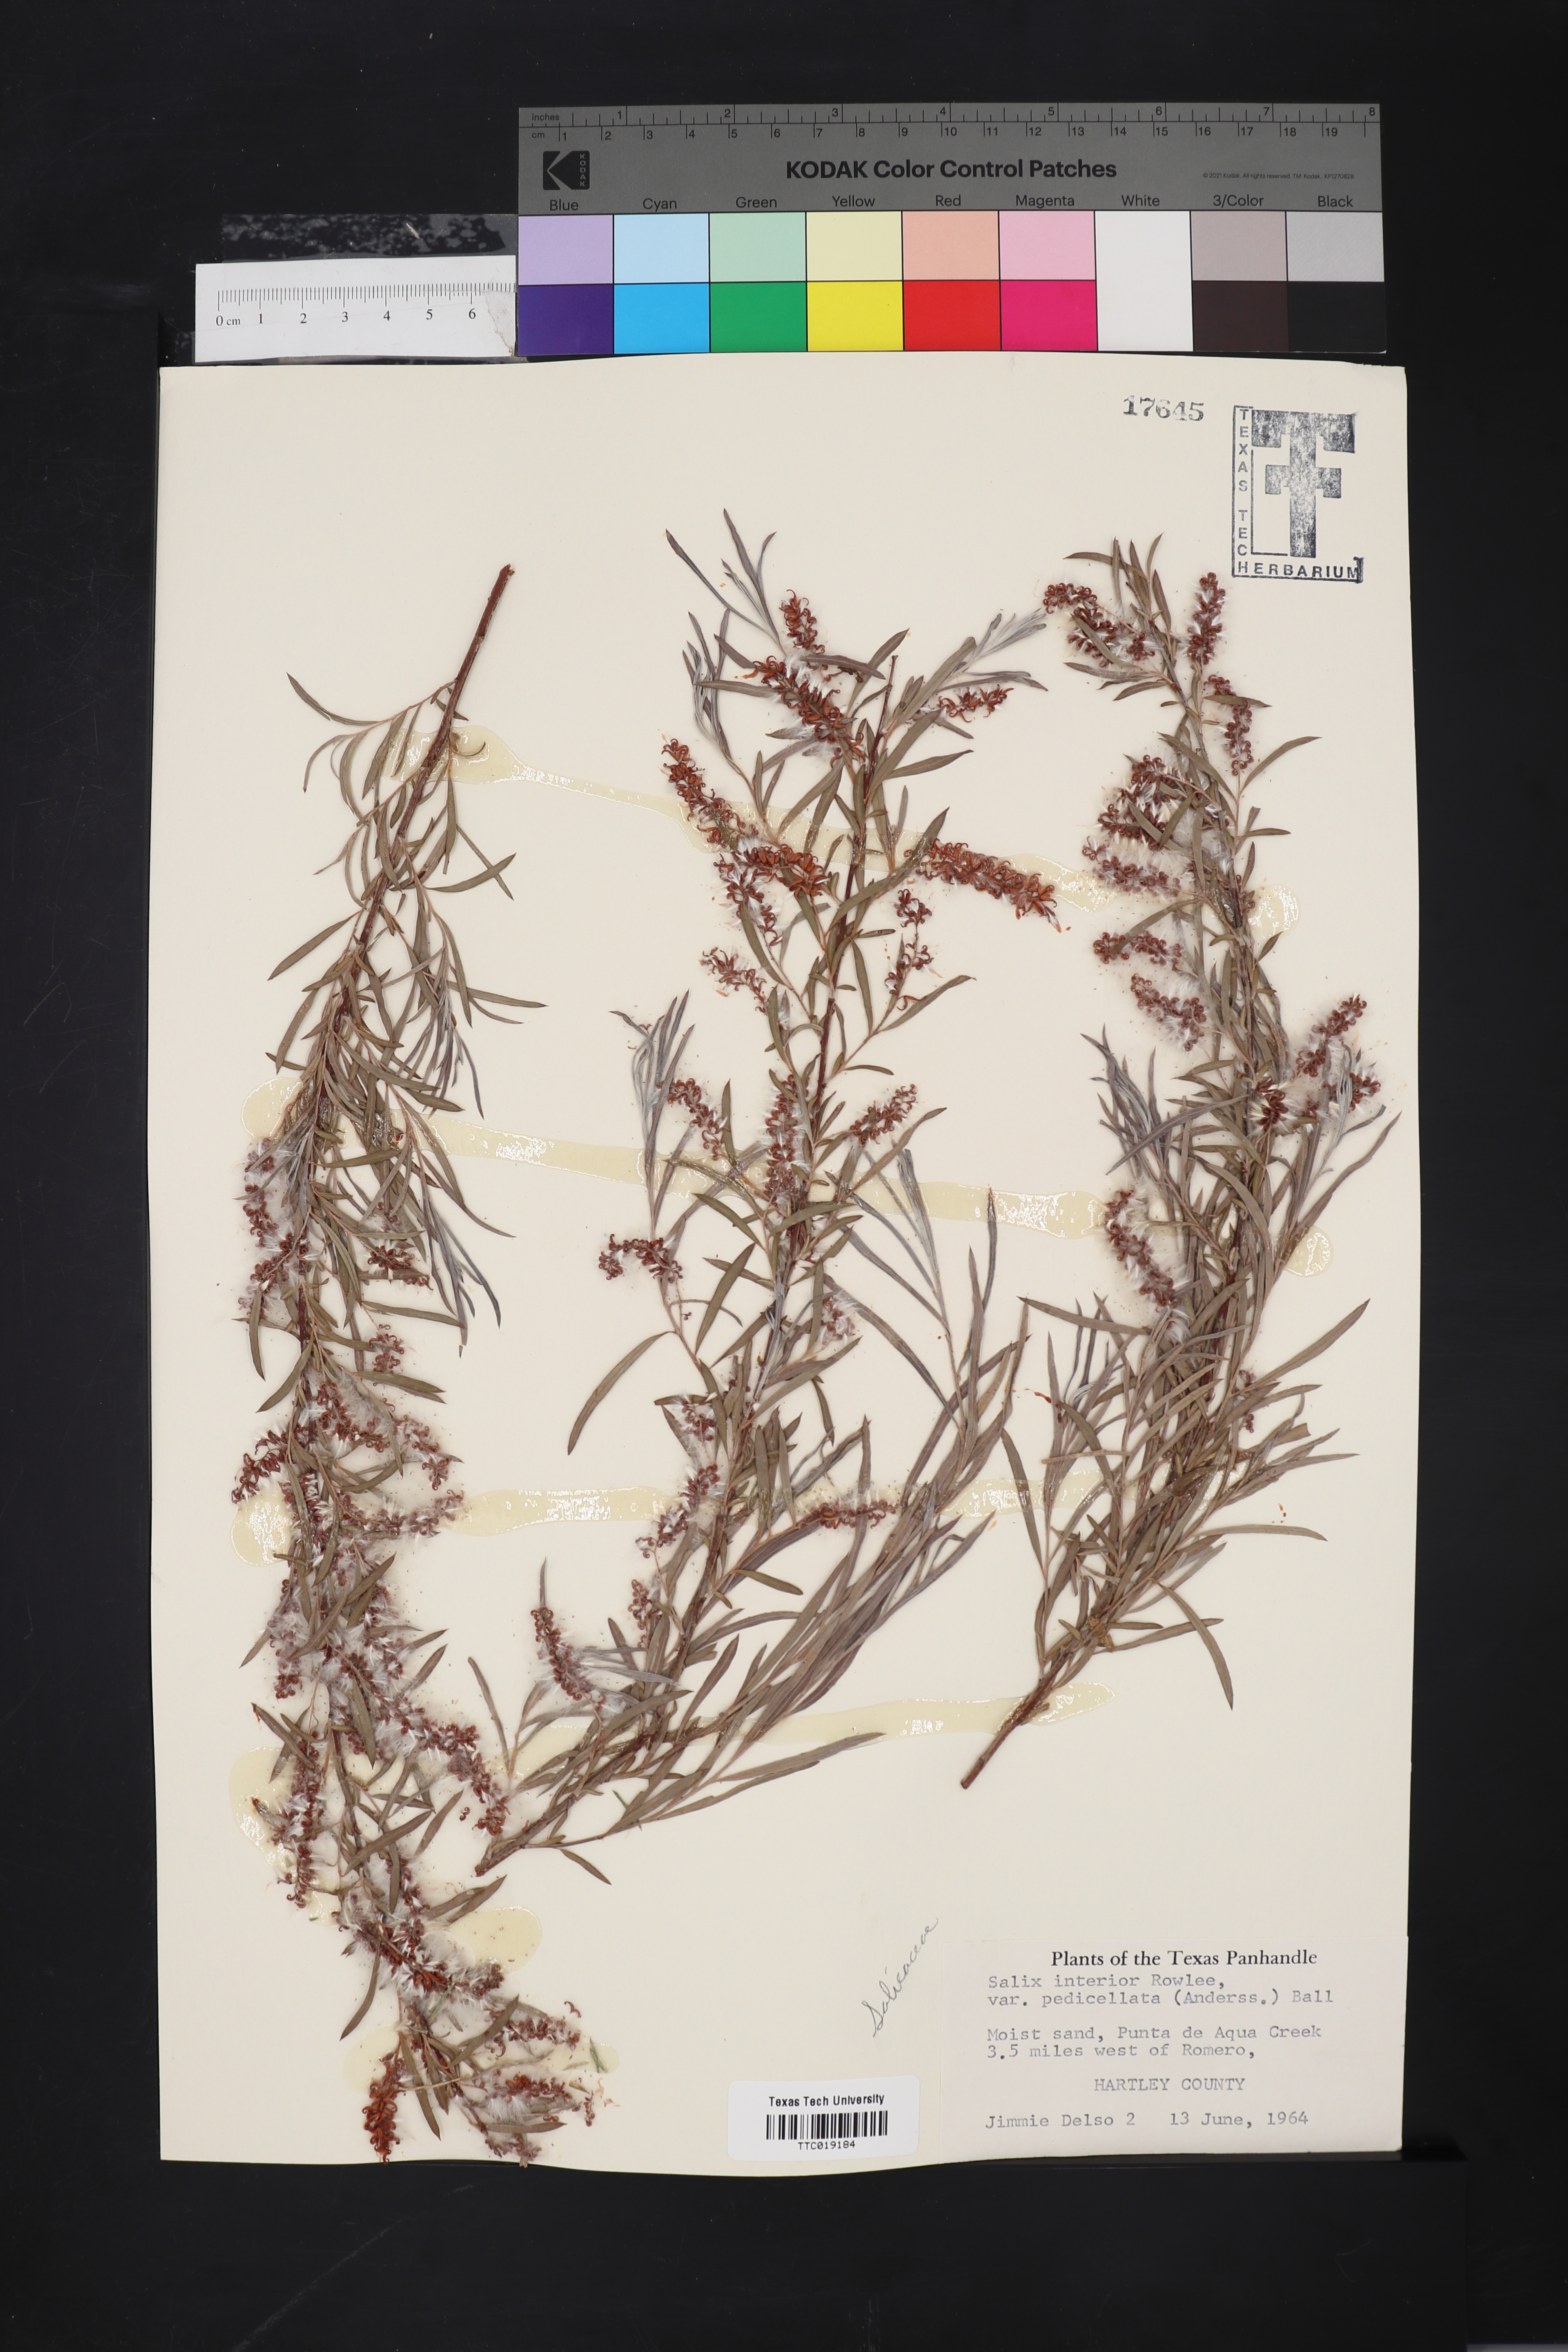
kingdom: Plantae
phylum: Tracheophyta
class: Magnoliopsida
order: Malpighiales
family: Salicaceae
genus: Salix
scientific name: Salix interior
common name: Sandbar willow
